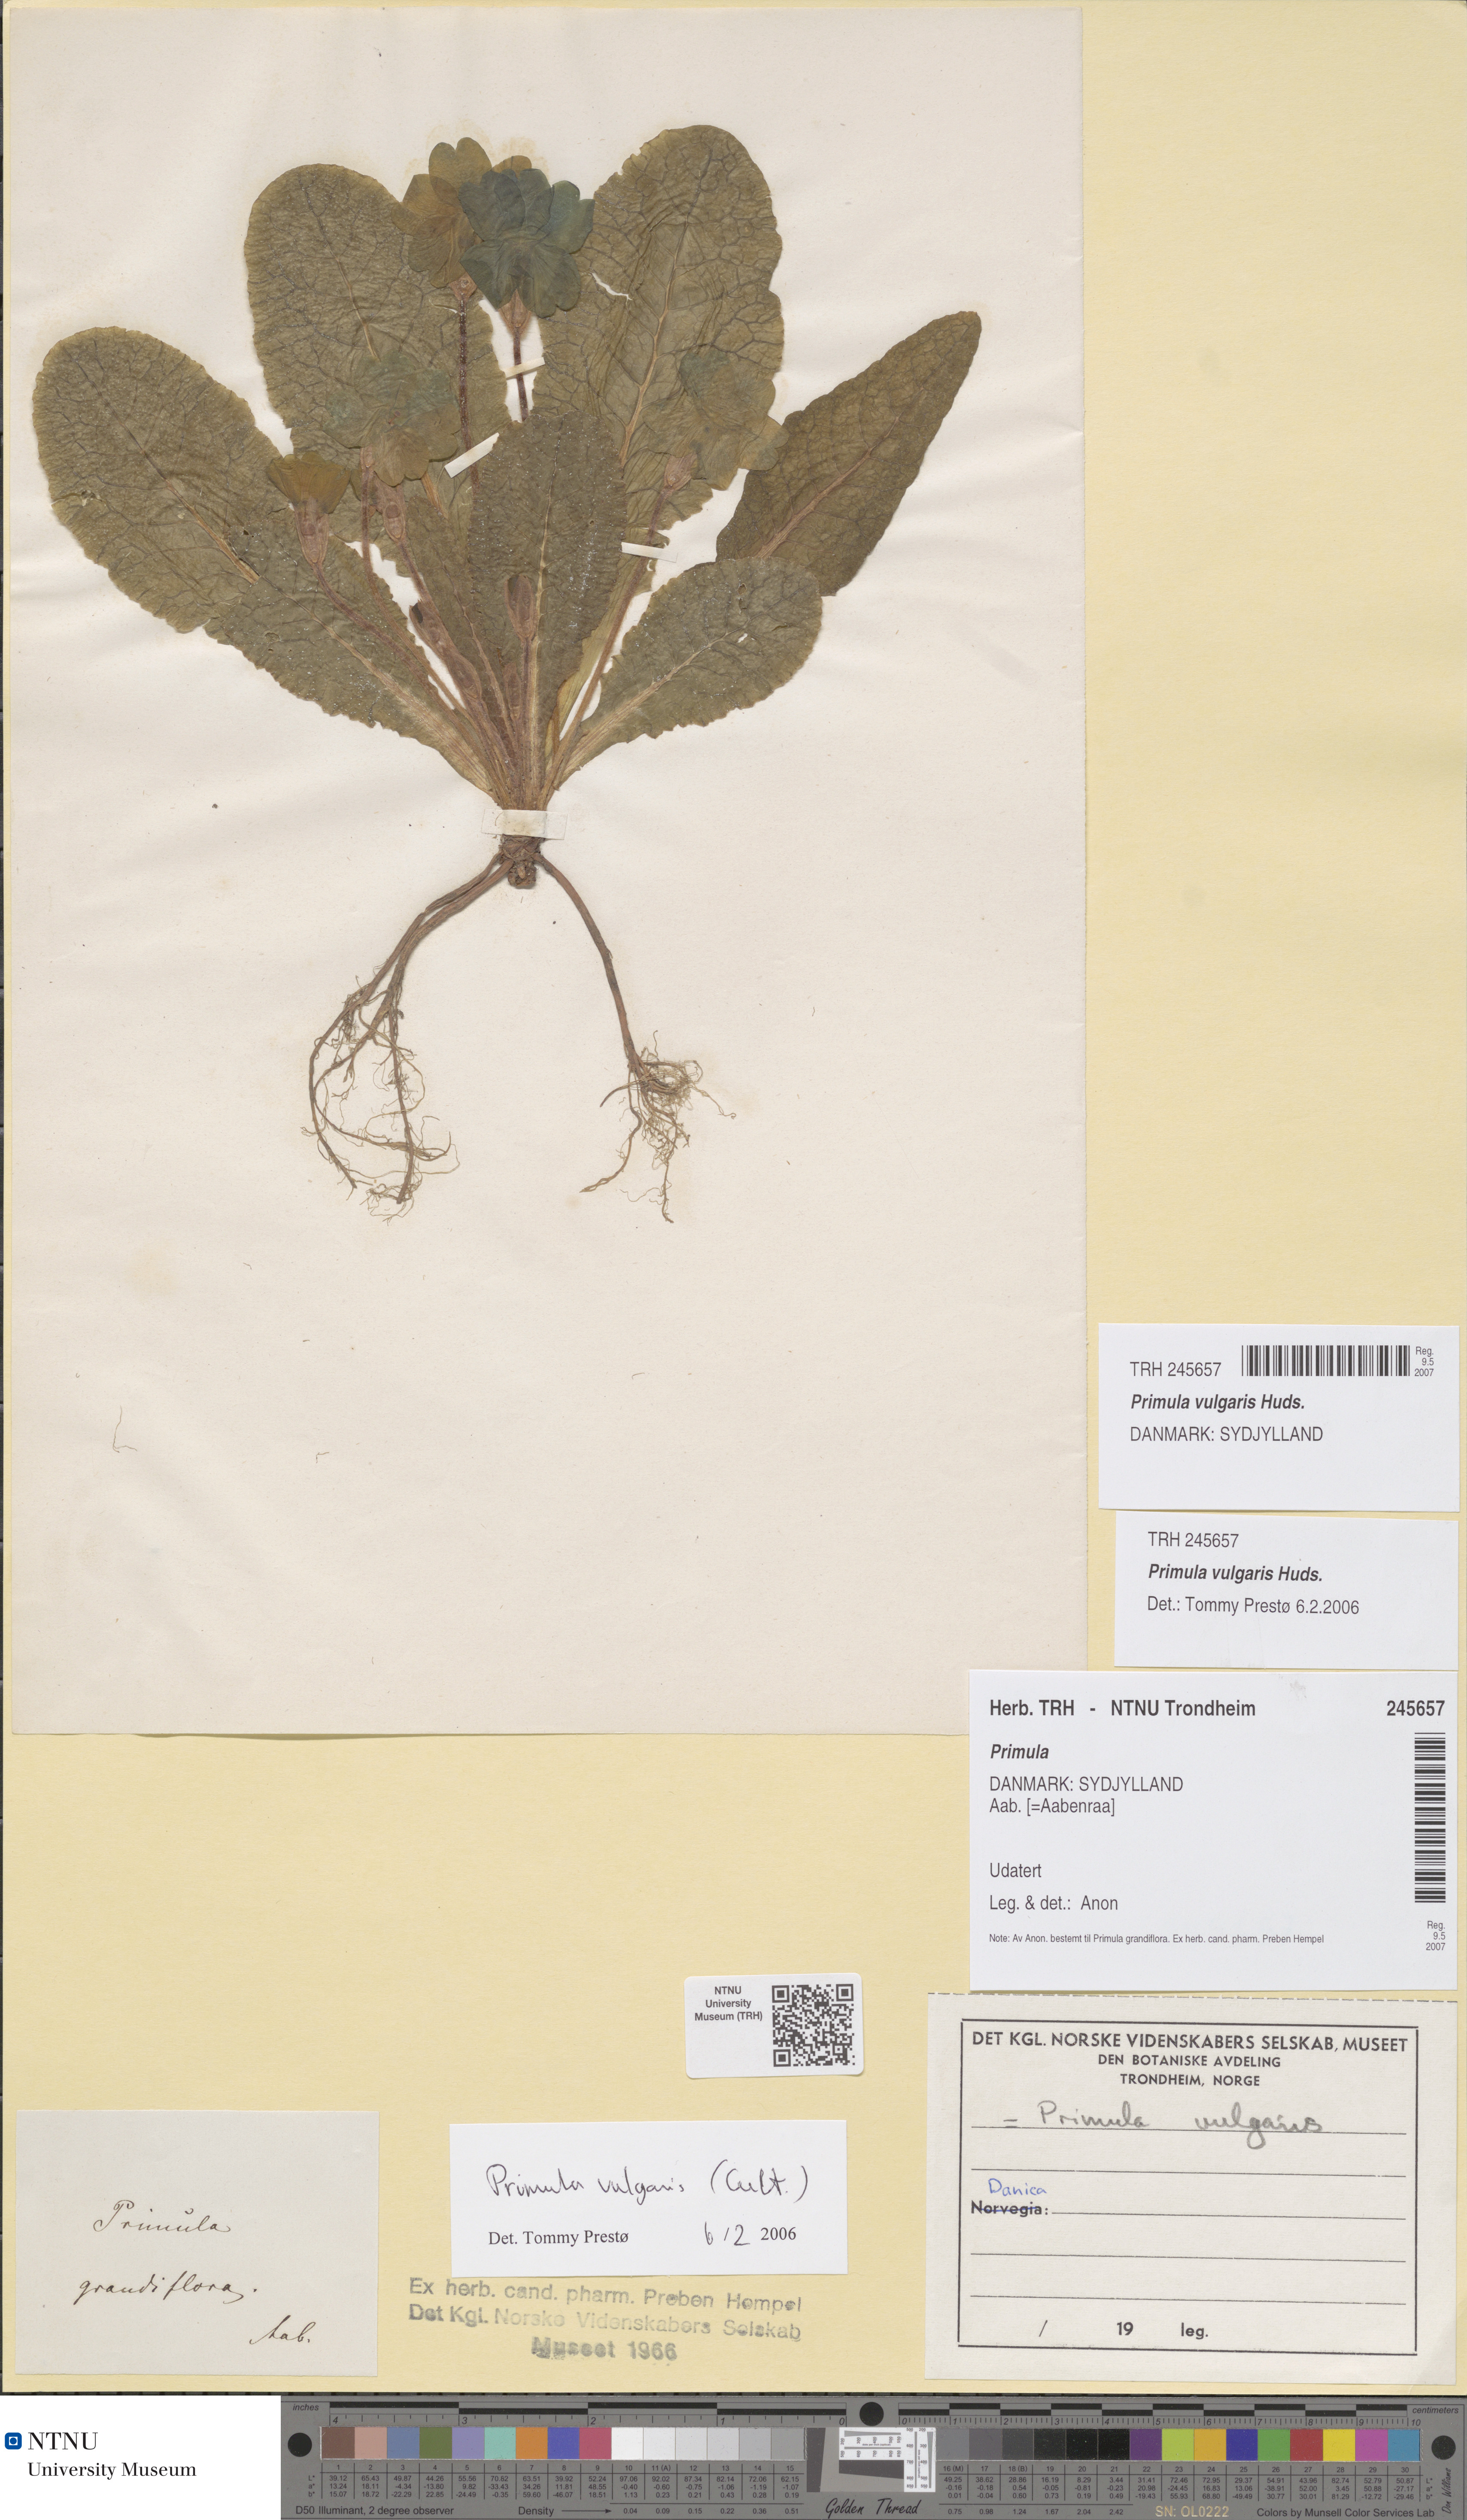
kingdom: Plantae
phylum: Tracheophyta
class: Magnoliopsida
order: Ericales
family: Primulaceae
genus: Primula
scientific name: Primula vulgaris
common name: Primrose
